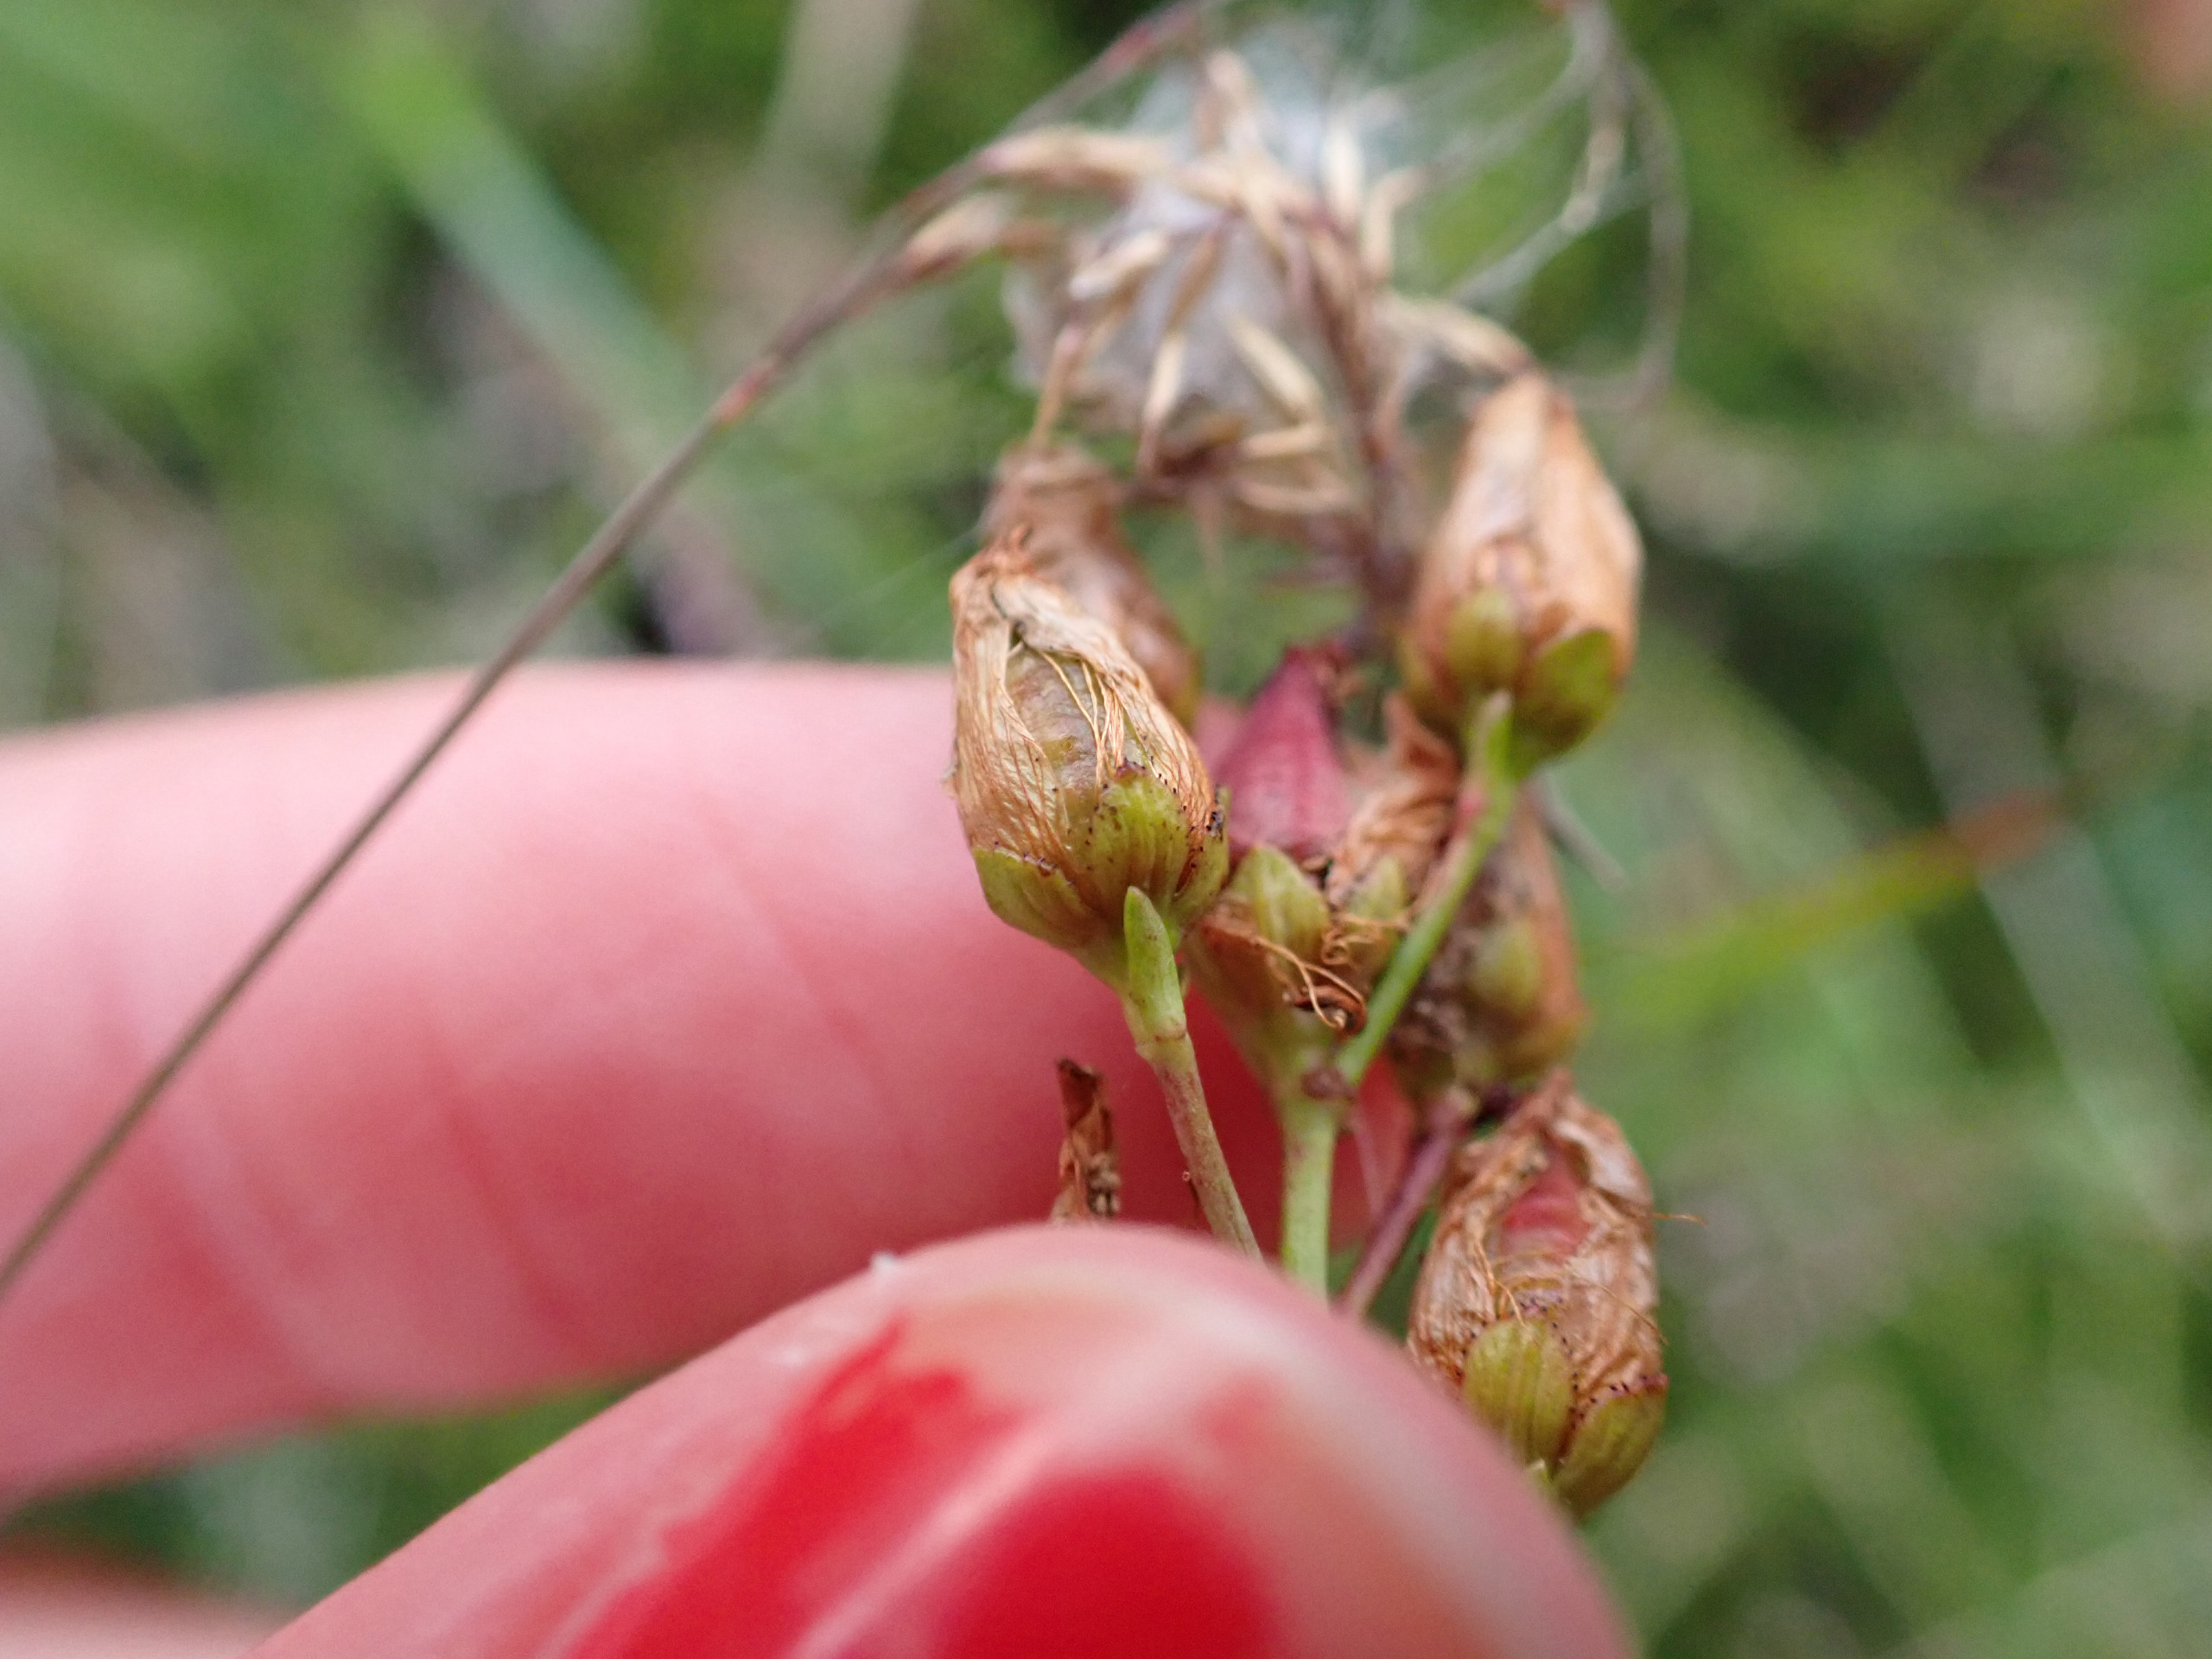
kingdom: Plantae
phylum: Tracheophyta
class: Magnoliopsida
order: Malpighiales
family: Hypericaceae
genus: Hypericum
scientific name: Hypericum pulchrum
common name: Smuk perikon
